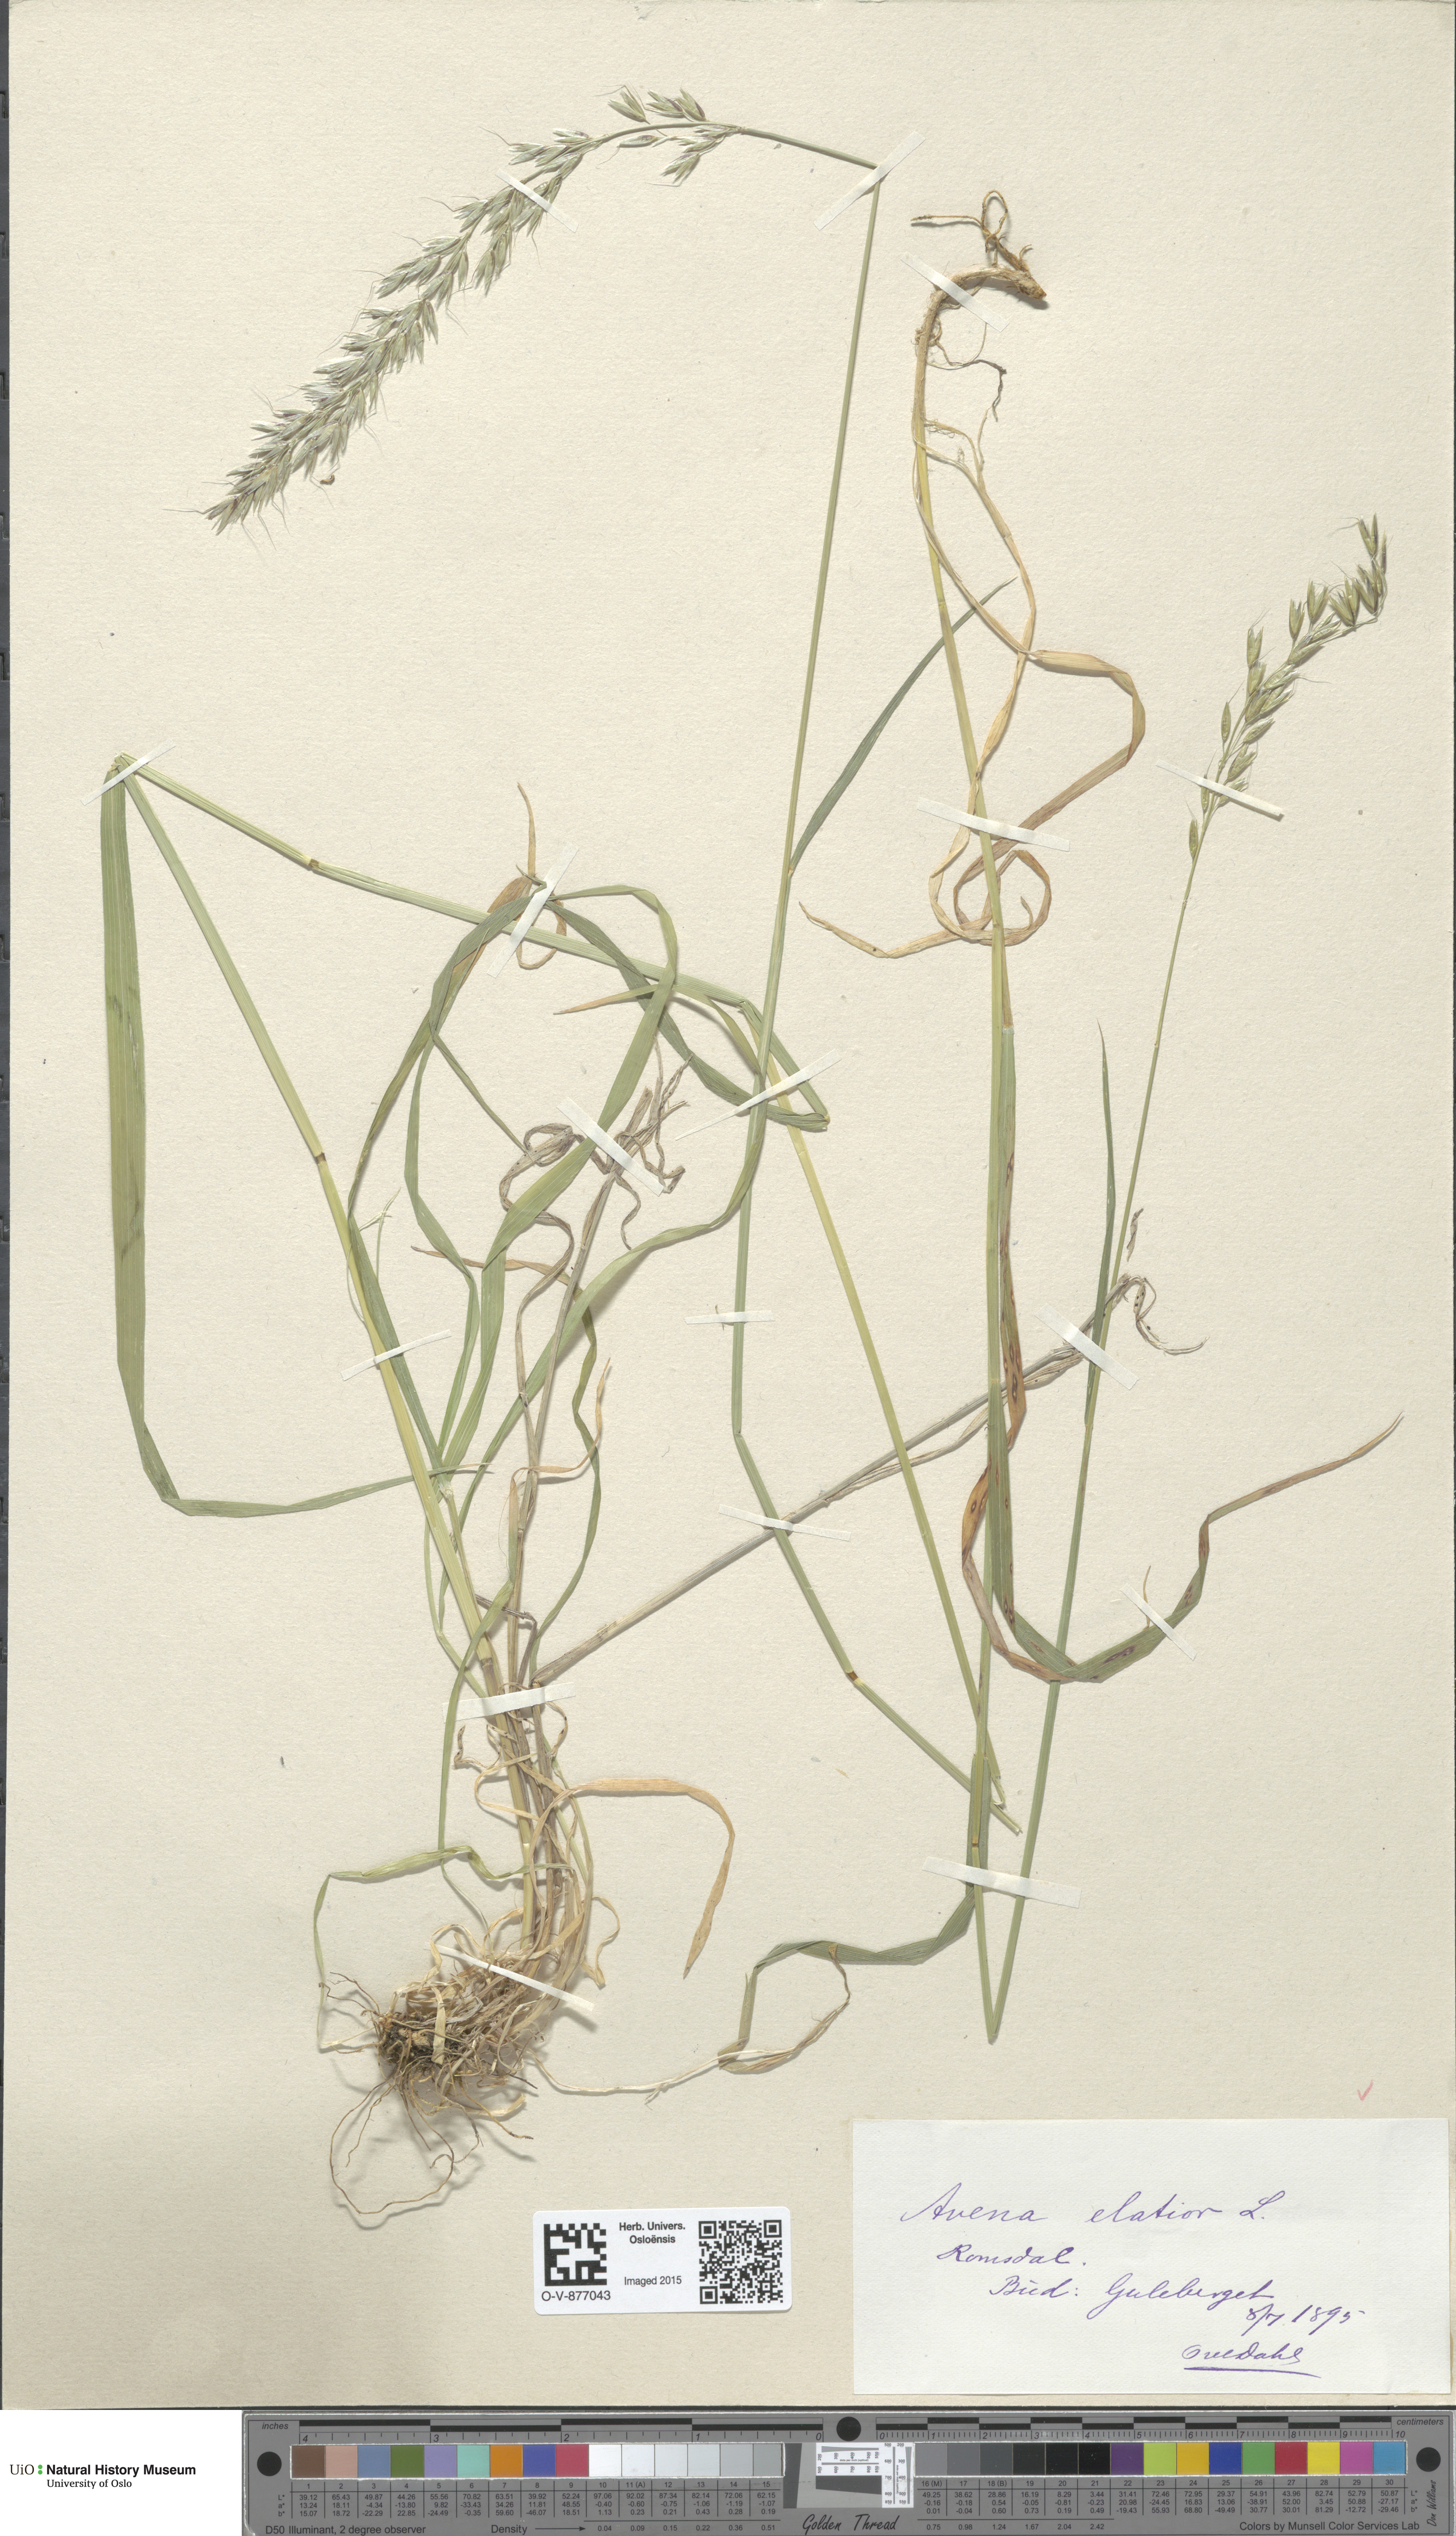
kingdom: Plantae
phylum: Tracheophyta
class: Liliopsida
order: Poales
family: Poaceae
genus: Arrhenatherum
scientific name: Arrhenatherum elatius
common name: Tall oatgrass
